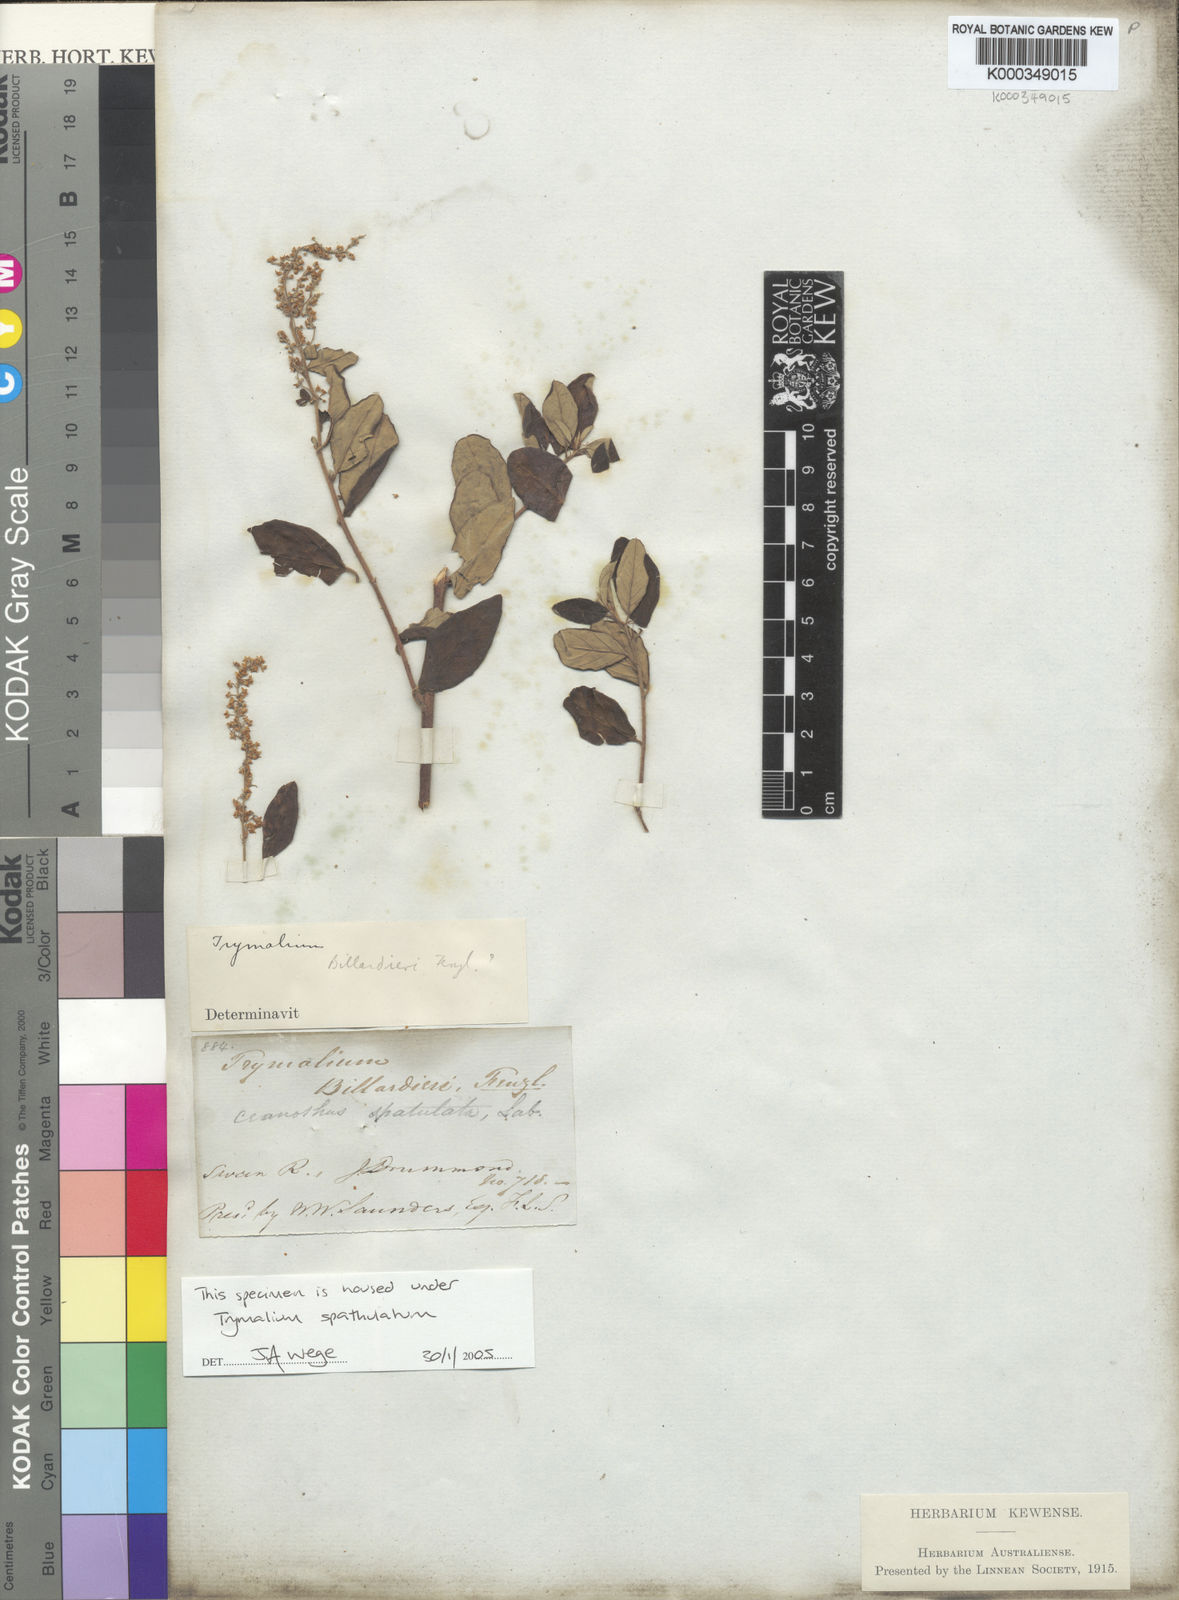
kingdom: Plantae
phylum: Tracheophyta
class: Magnoliopsida
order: Rosales
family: Rhamnaceae
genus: Trymalium
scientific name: Trymalium
